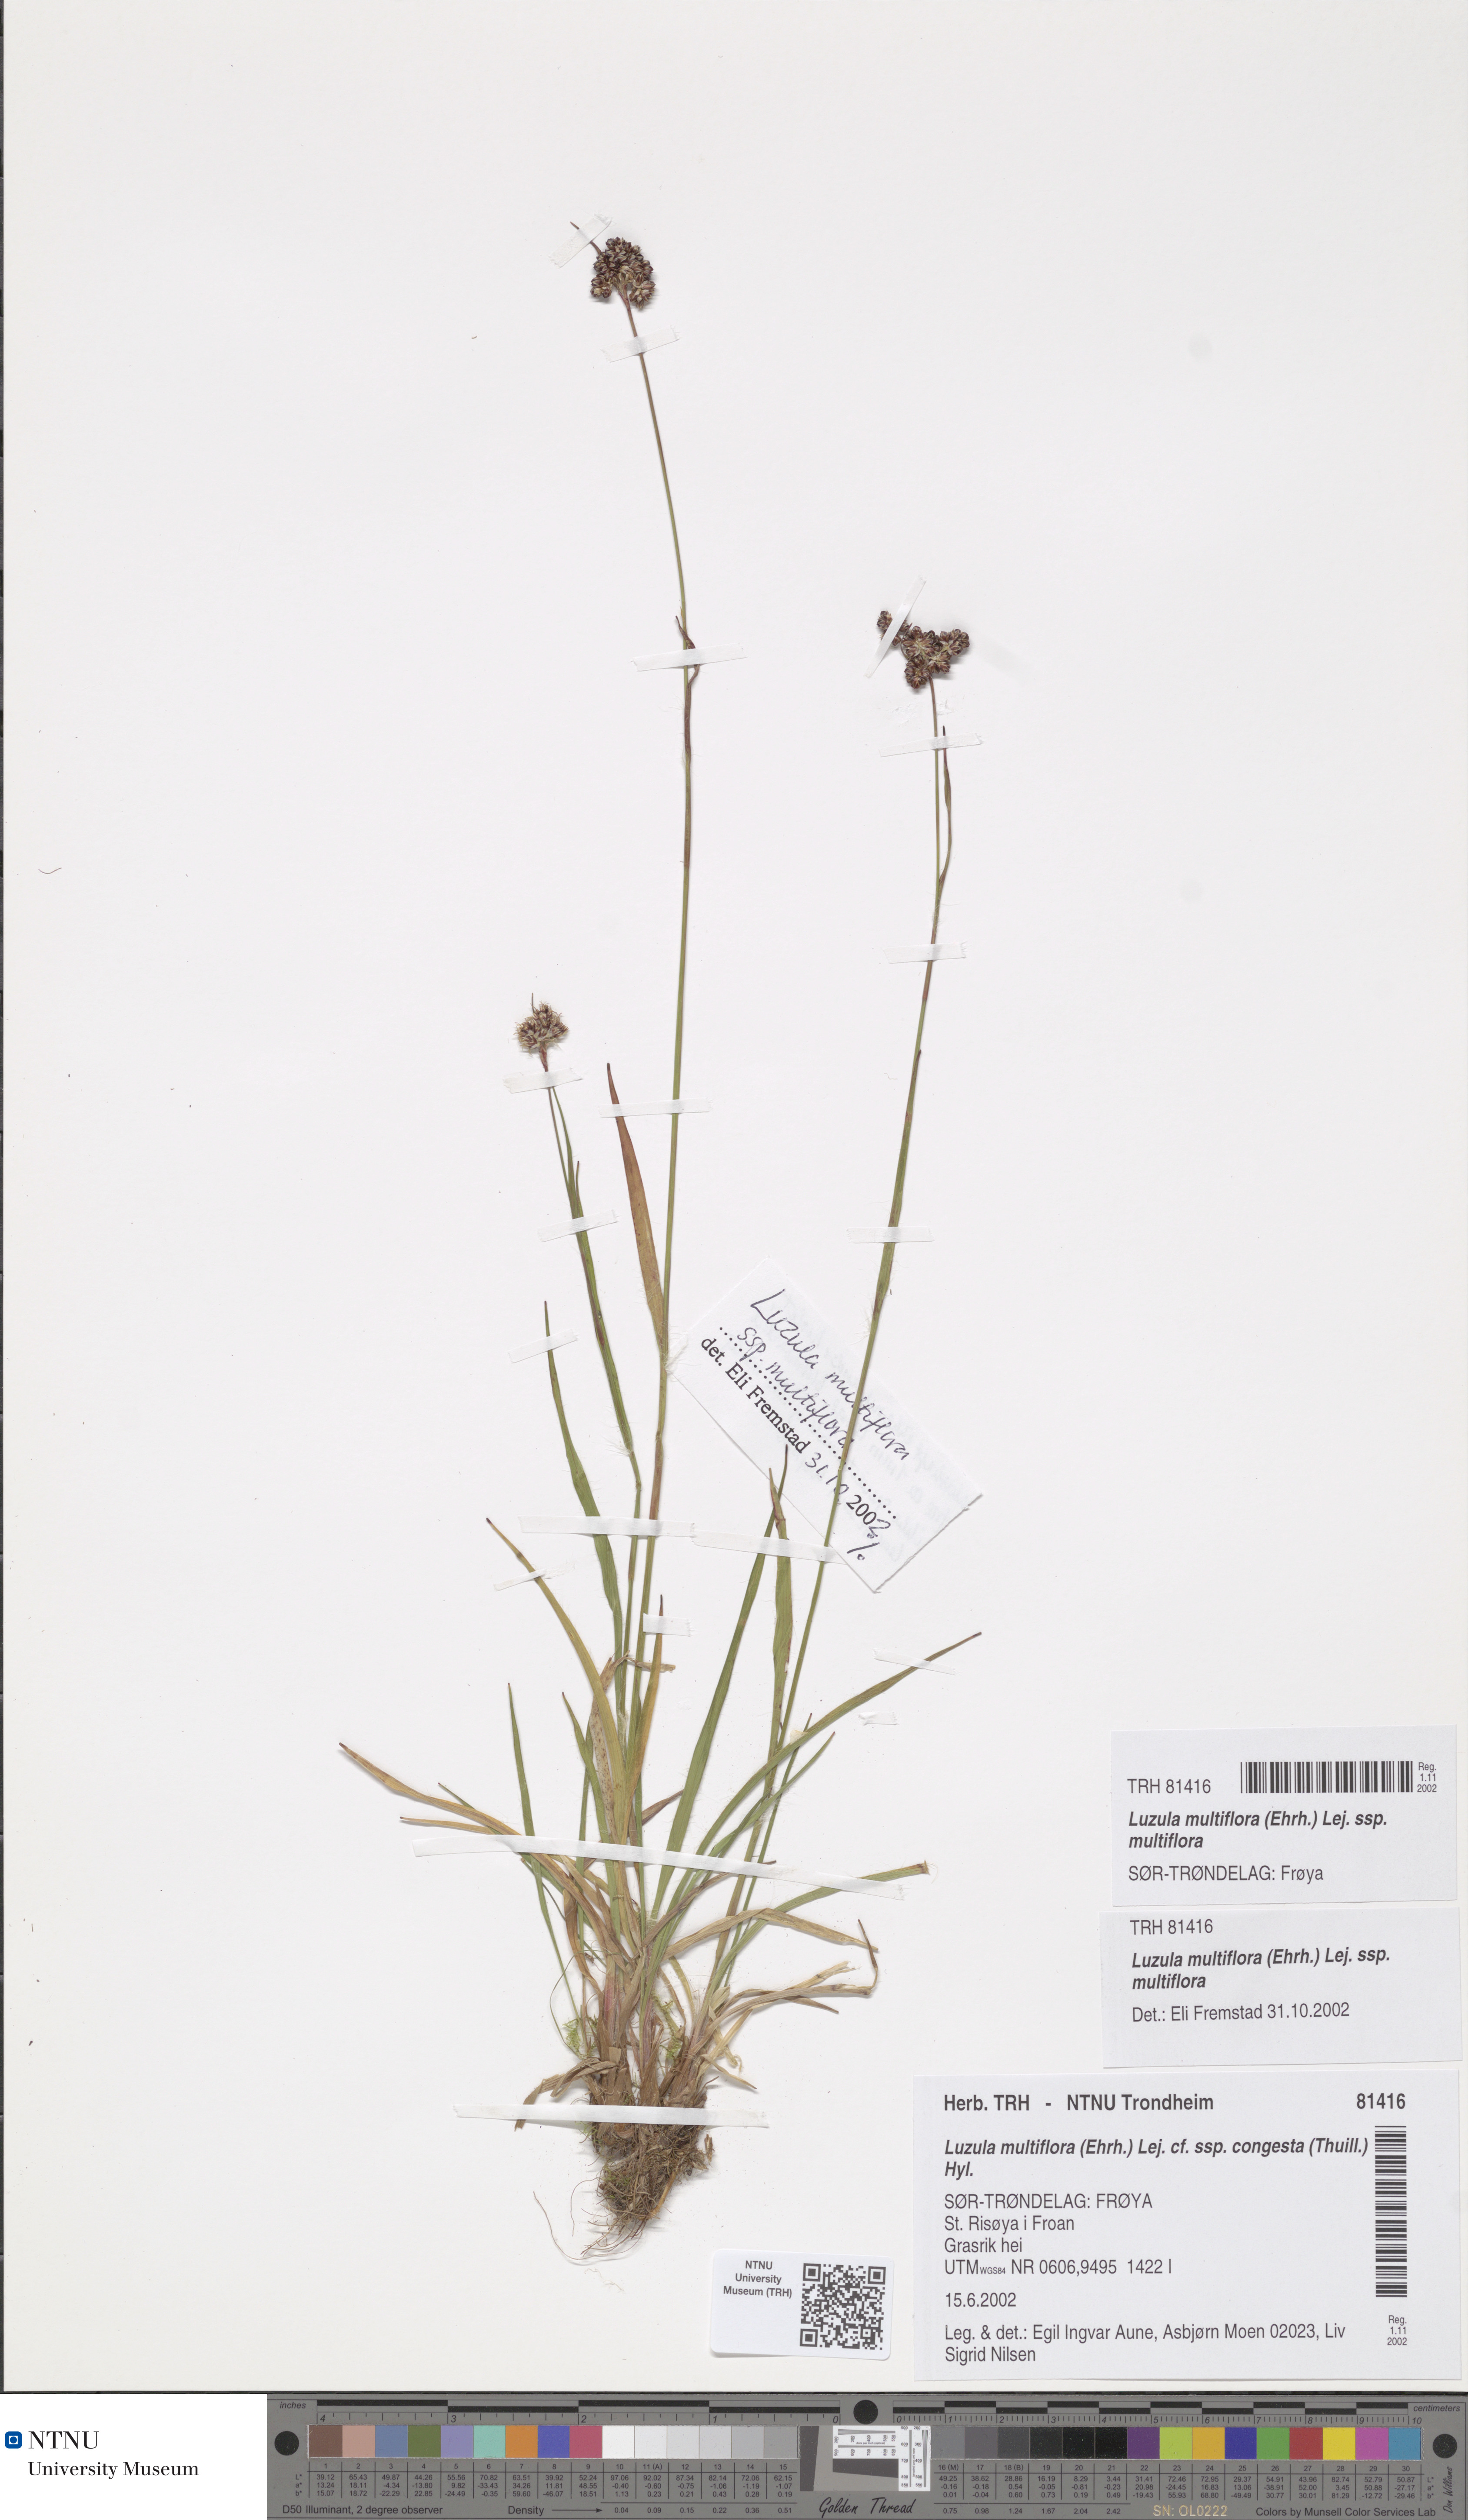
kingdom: Plantae
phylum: Tracheophyta
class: Liliopsida
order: Poales
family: Juncaceae
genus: Luzula
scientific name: Luzula multiflora
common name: Heath wood-rush
